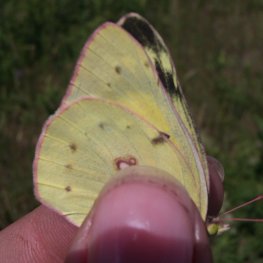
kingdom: Animalia
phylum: Arthropoda
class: Insecta
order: Lepidoptera
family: Pieridae
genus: Colias
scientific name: Colias philodice
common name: Clouded Sulphur
